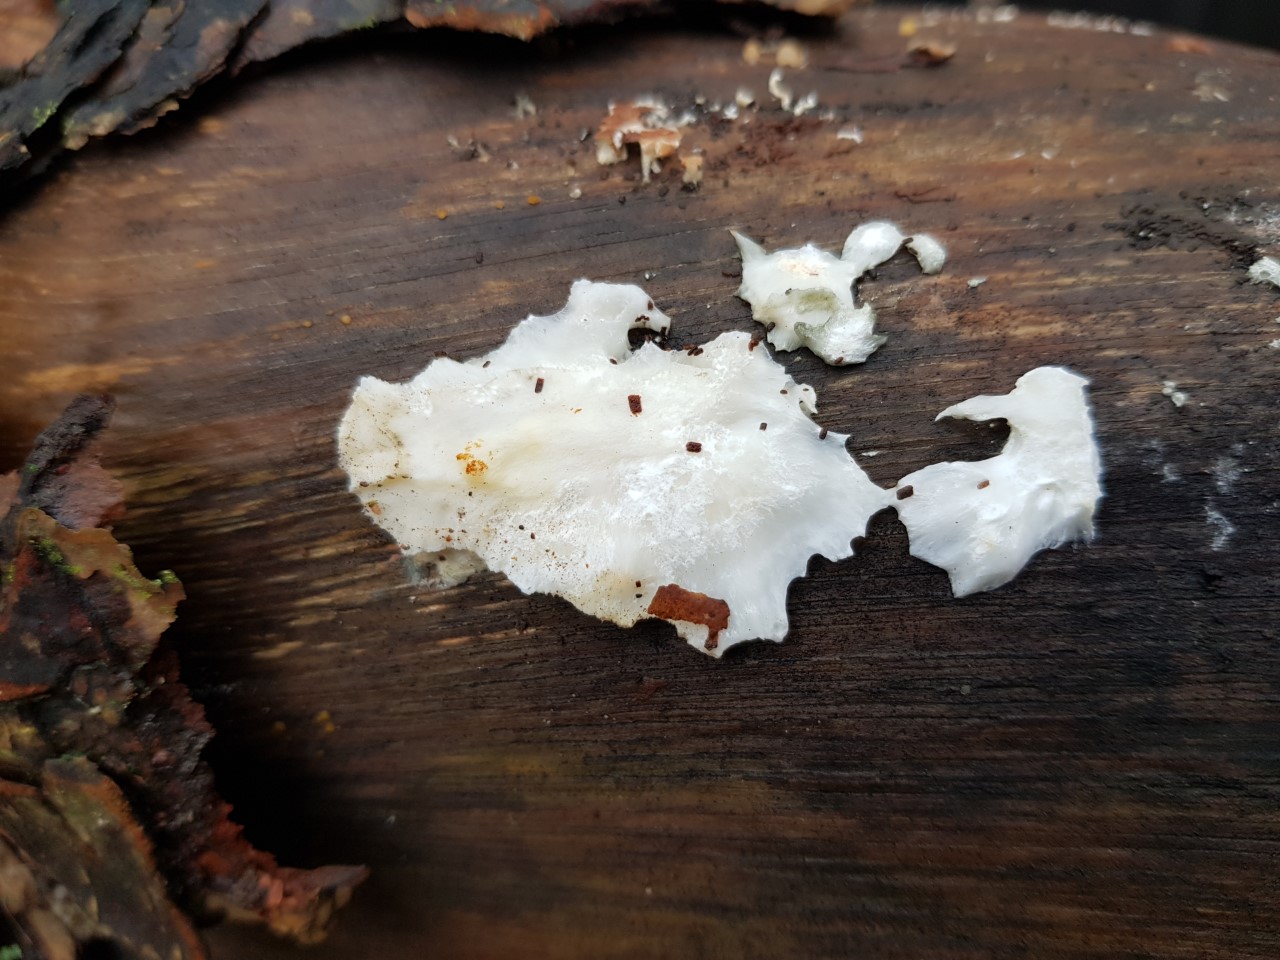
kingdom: Fungi
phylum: Basidiomycota
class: Agaricomycetes
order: Polyporales
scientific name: Polyporales
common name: poresvampordenen
